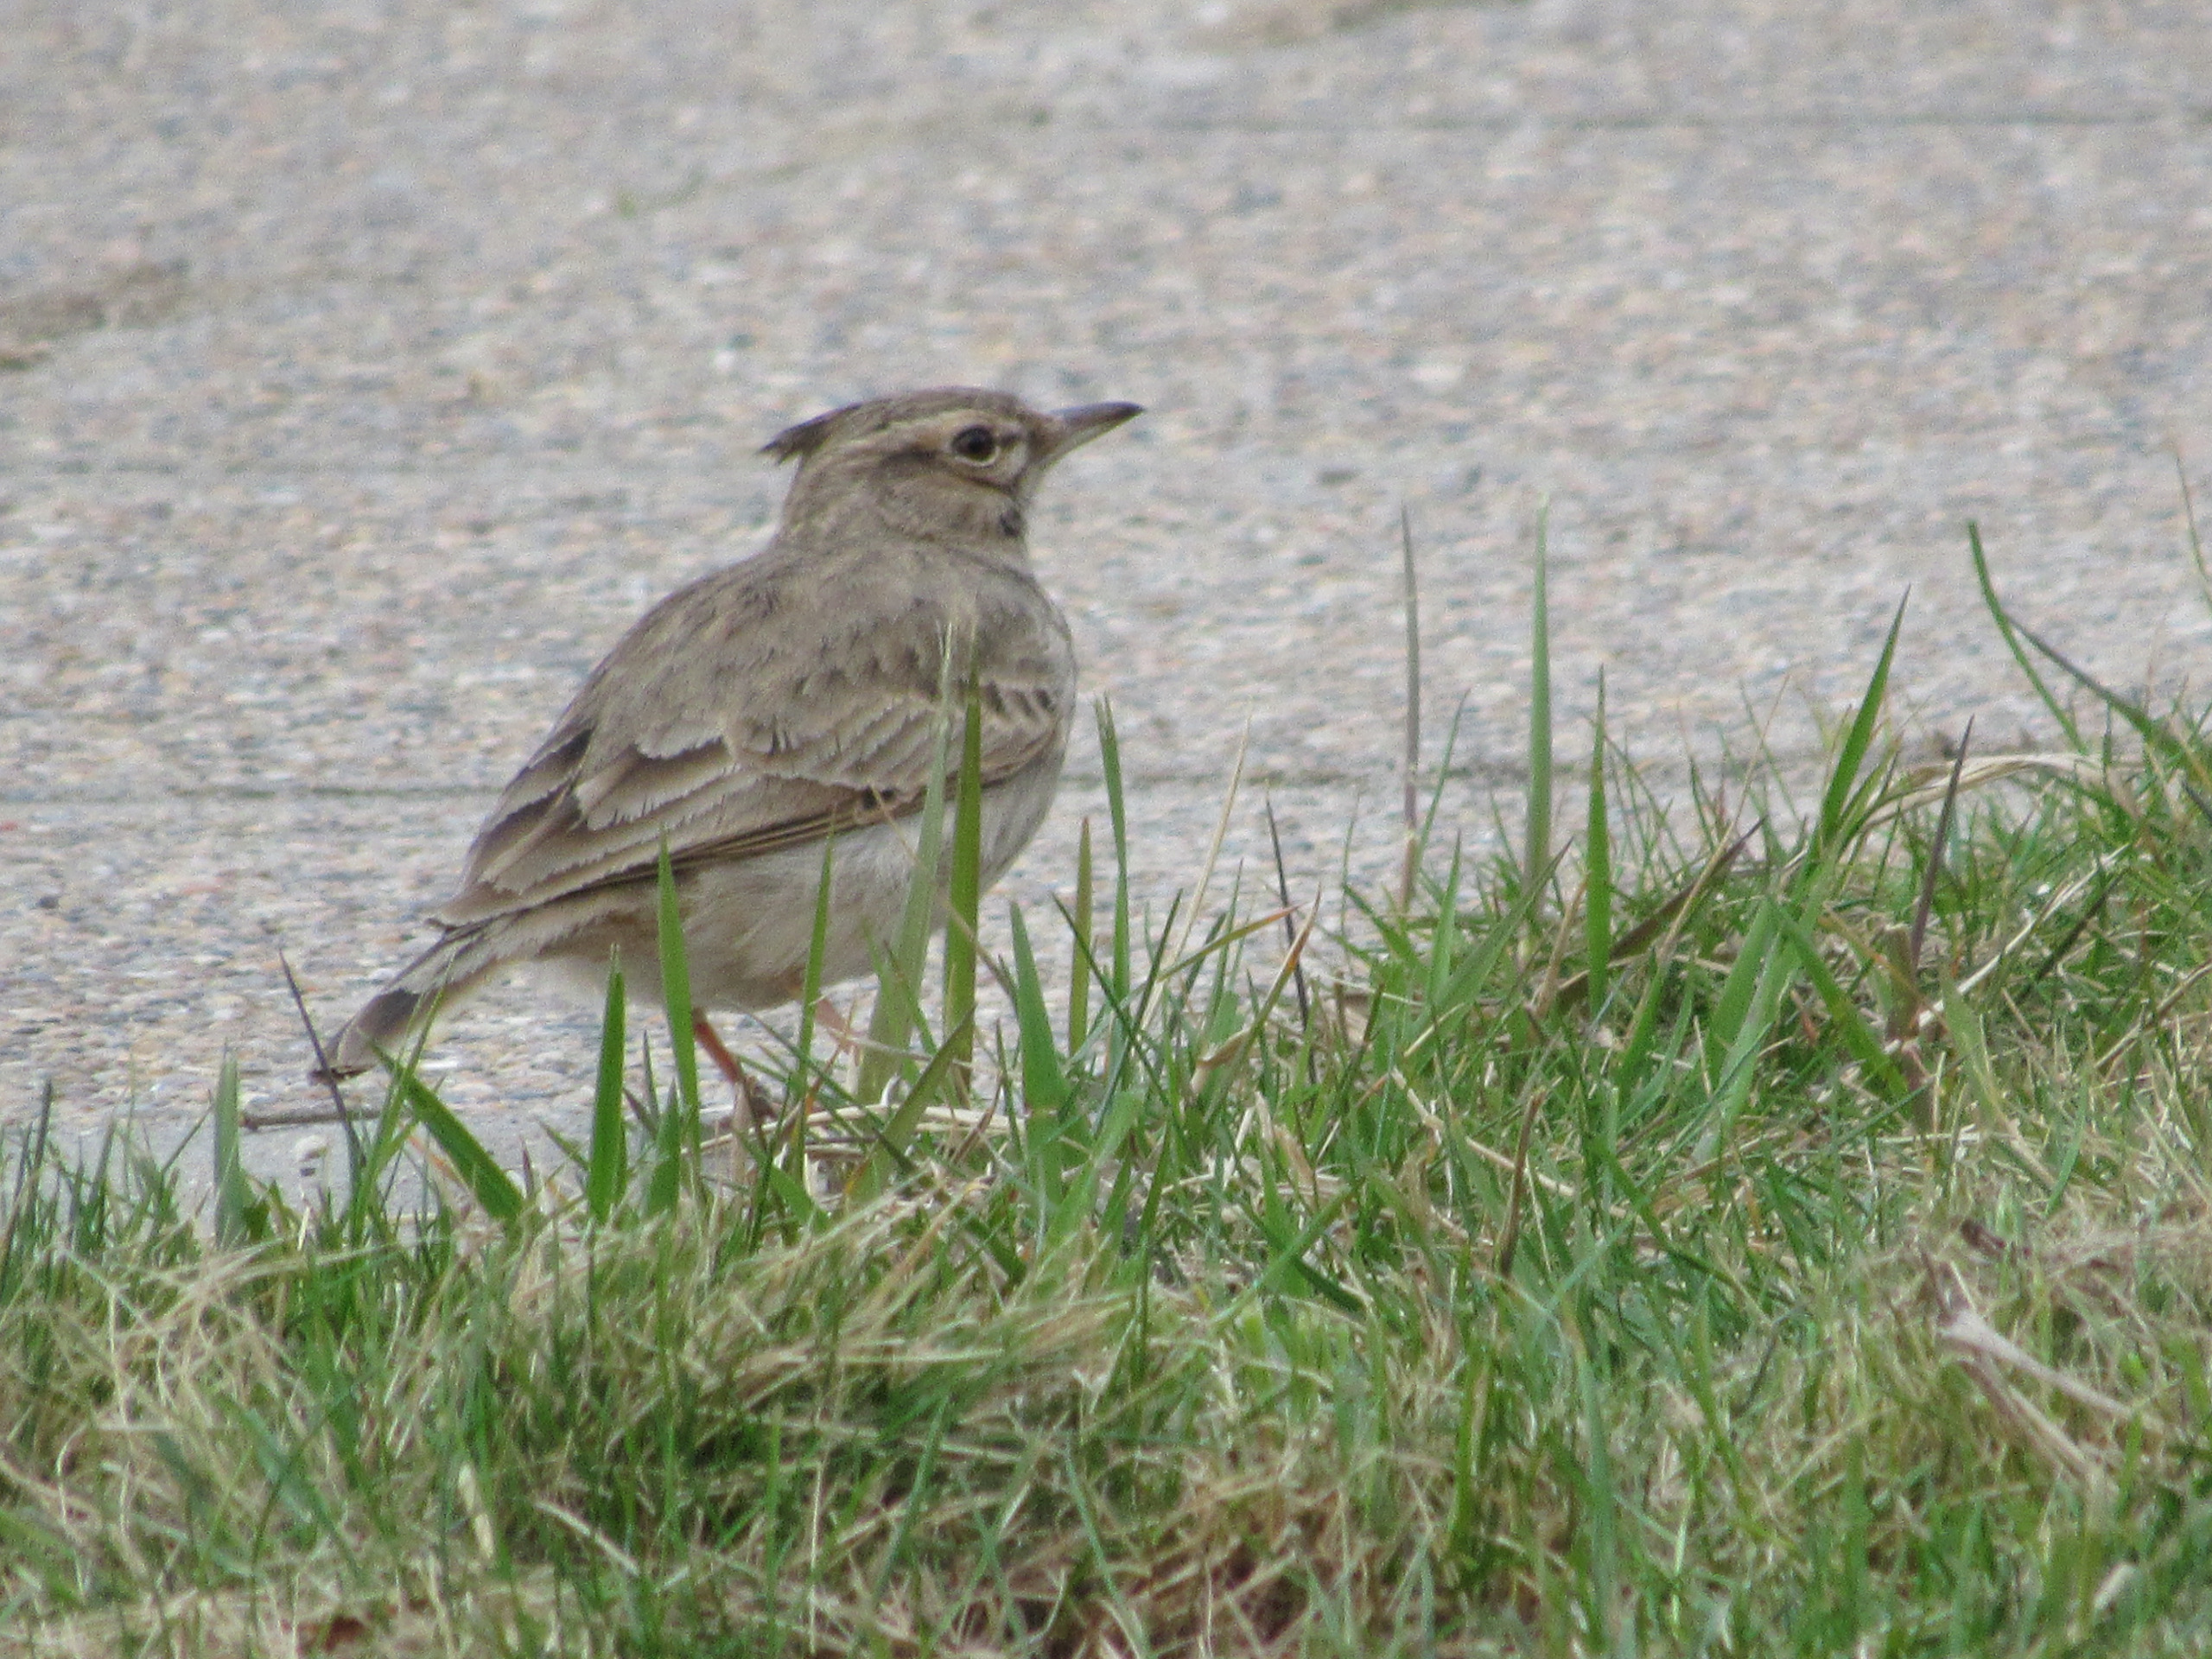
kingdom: Animalia
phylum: Chordata
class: Aves
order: Passeriformes
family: Alaudidae
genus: Galerida
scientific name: Galerida cristata
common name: Toplærke
